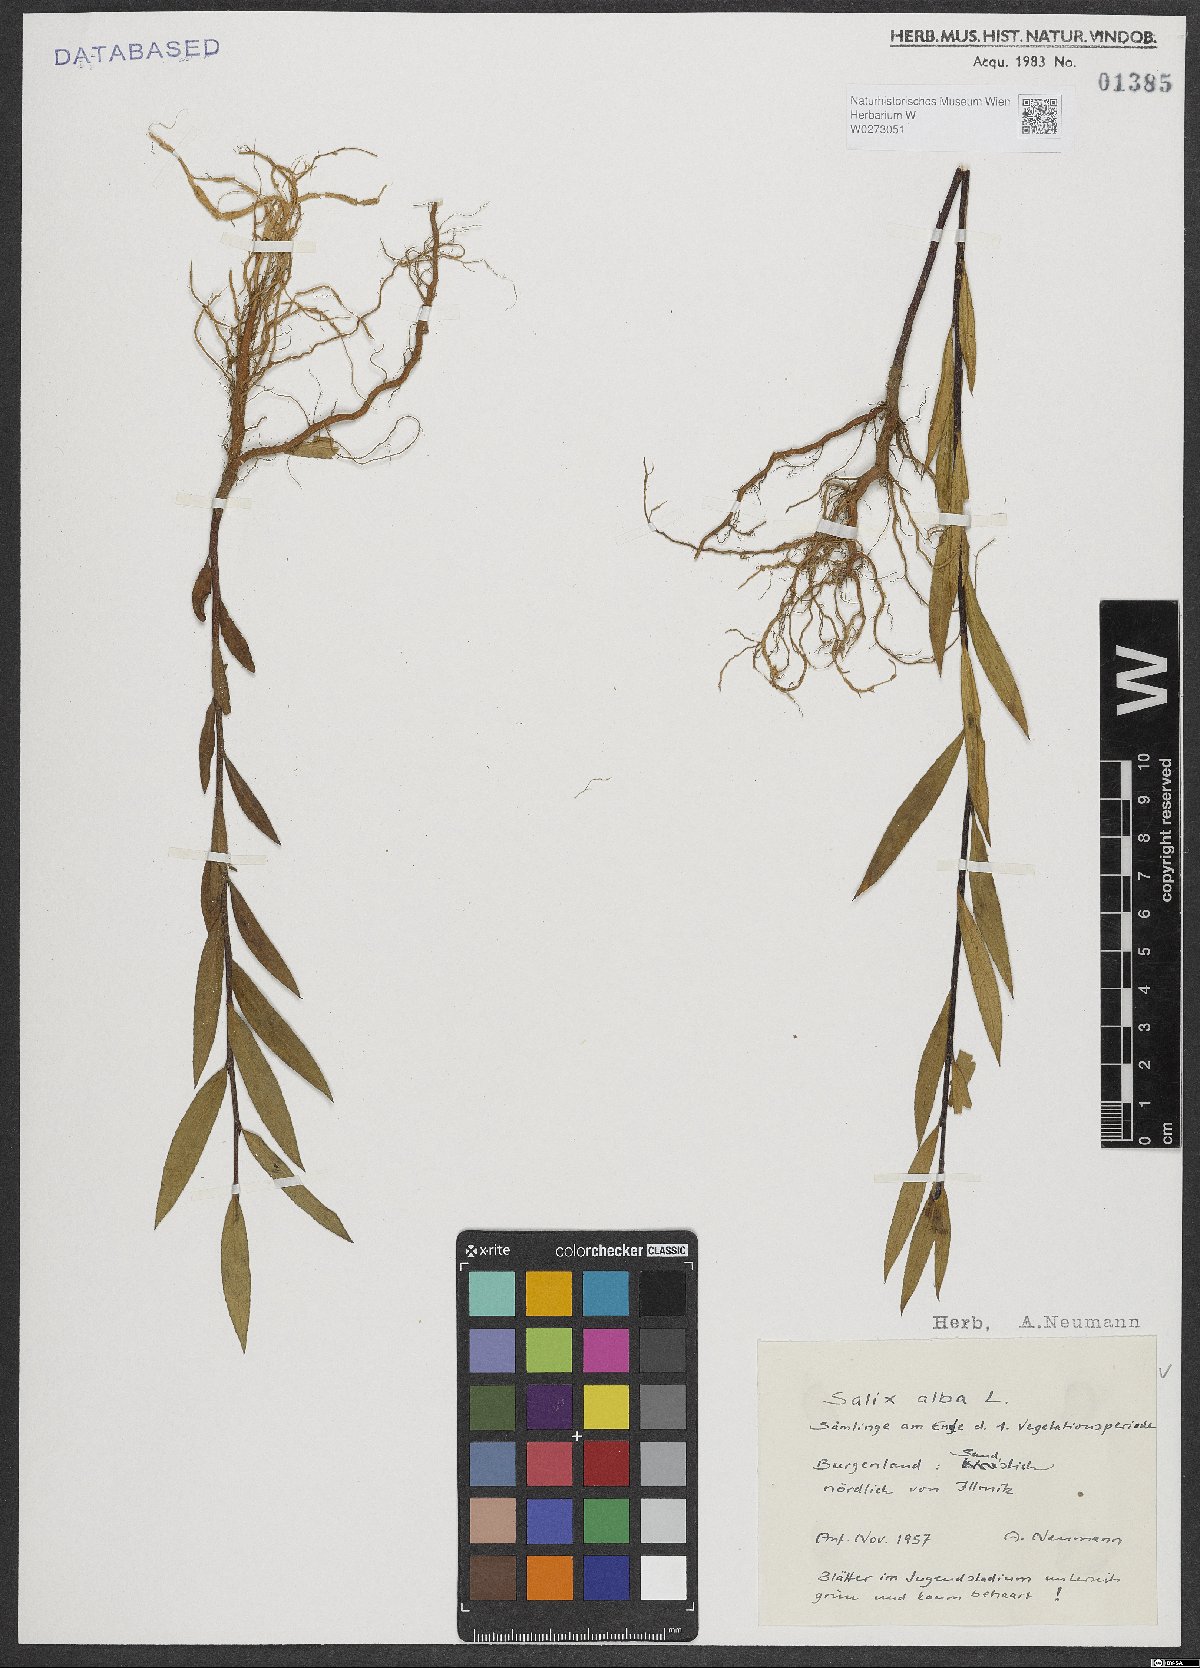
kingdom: Plantae
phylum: Tracheophyta
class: Magnoliopsida
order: Malpighiales
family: Salicaceae
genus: Salix
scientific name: Salix alba
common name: White willow
